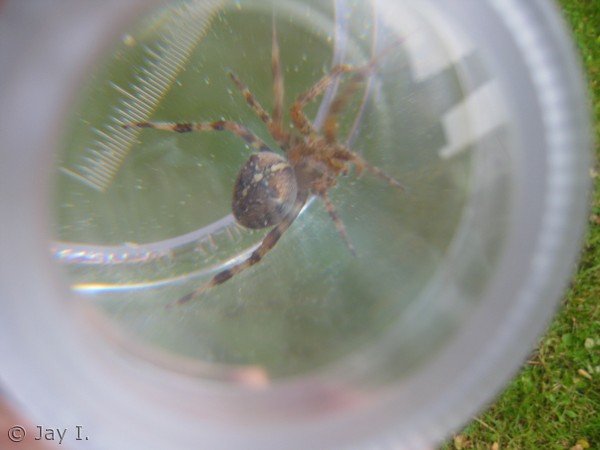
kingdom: Animalia
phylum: Arthropoda
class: Arachnida
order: Araneae
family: Araneidae
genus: Araneus
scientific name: Araneus diadematus
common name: Korsedderkop
